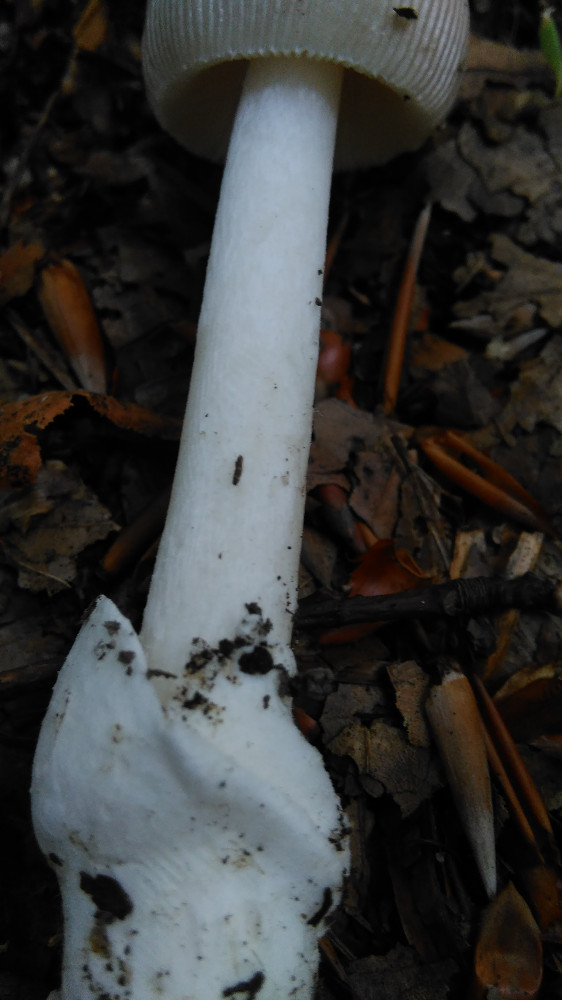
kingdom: Fungi
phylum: Basidiomycota
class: Agaricomycetes
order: Agaricales
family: Amanitaceae
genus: Amanita
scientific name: Amanita vaginata
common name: grå kam-fluesvamp
